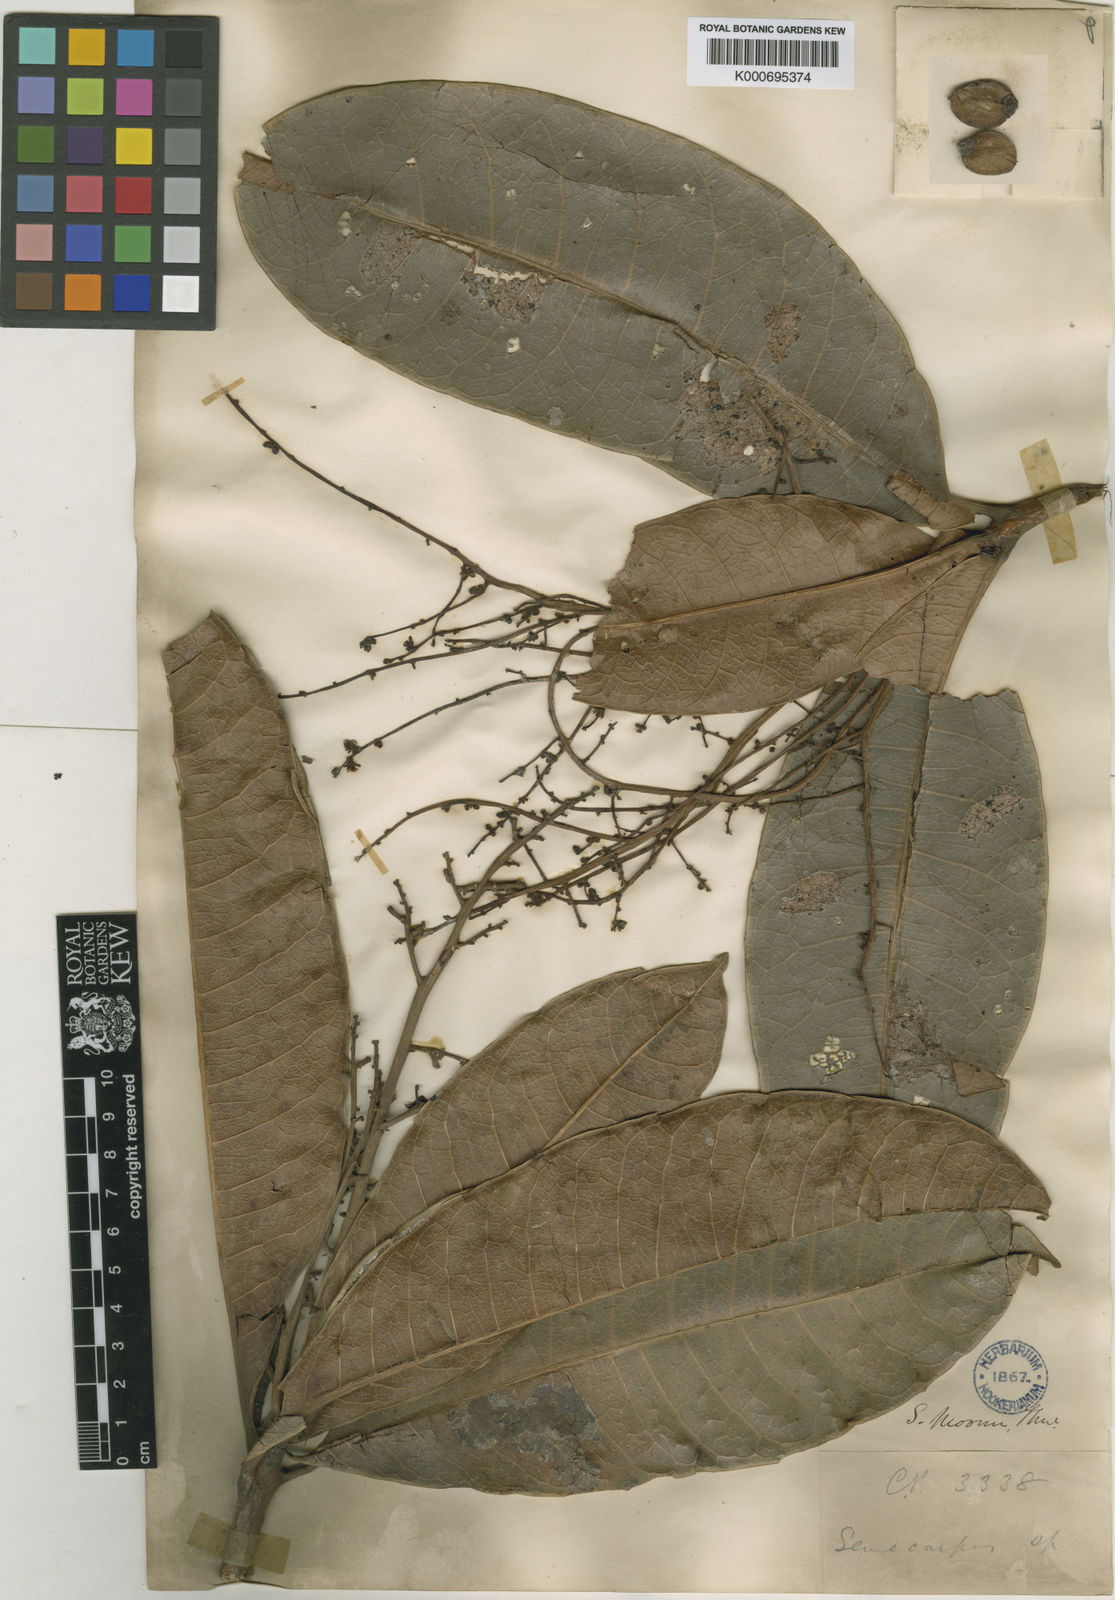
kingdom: Plantae
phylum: Tracheophyta
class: Magnoliopsida
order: Sapindales
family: Anacardiaceae
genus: Semecarpus
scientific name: Semecarpus moonii
